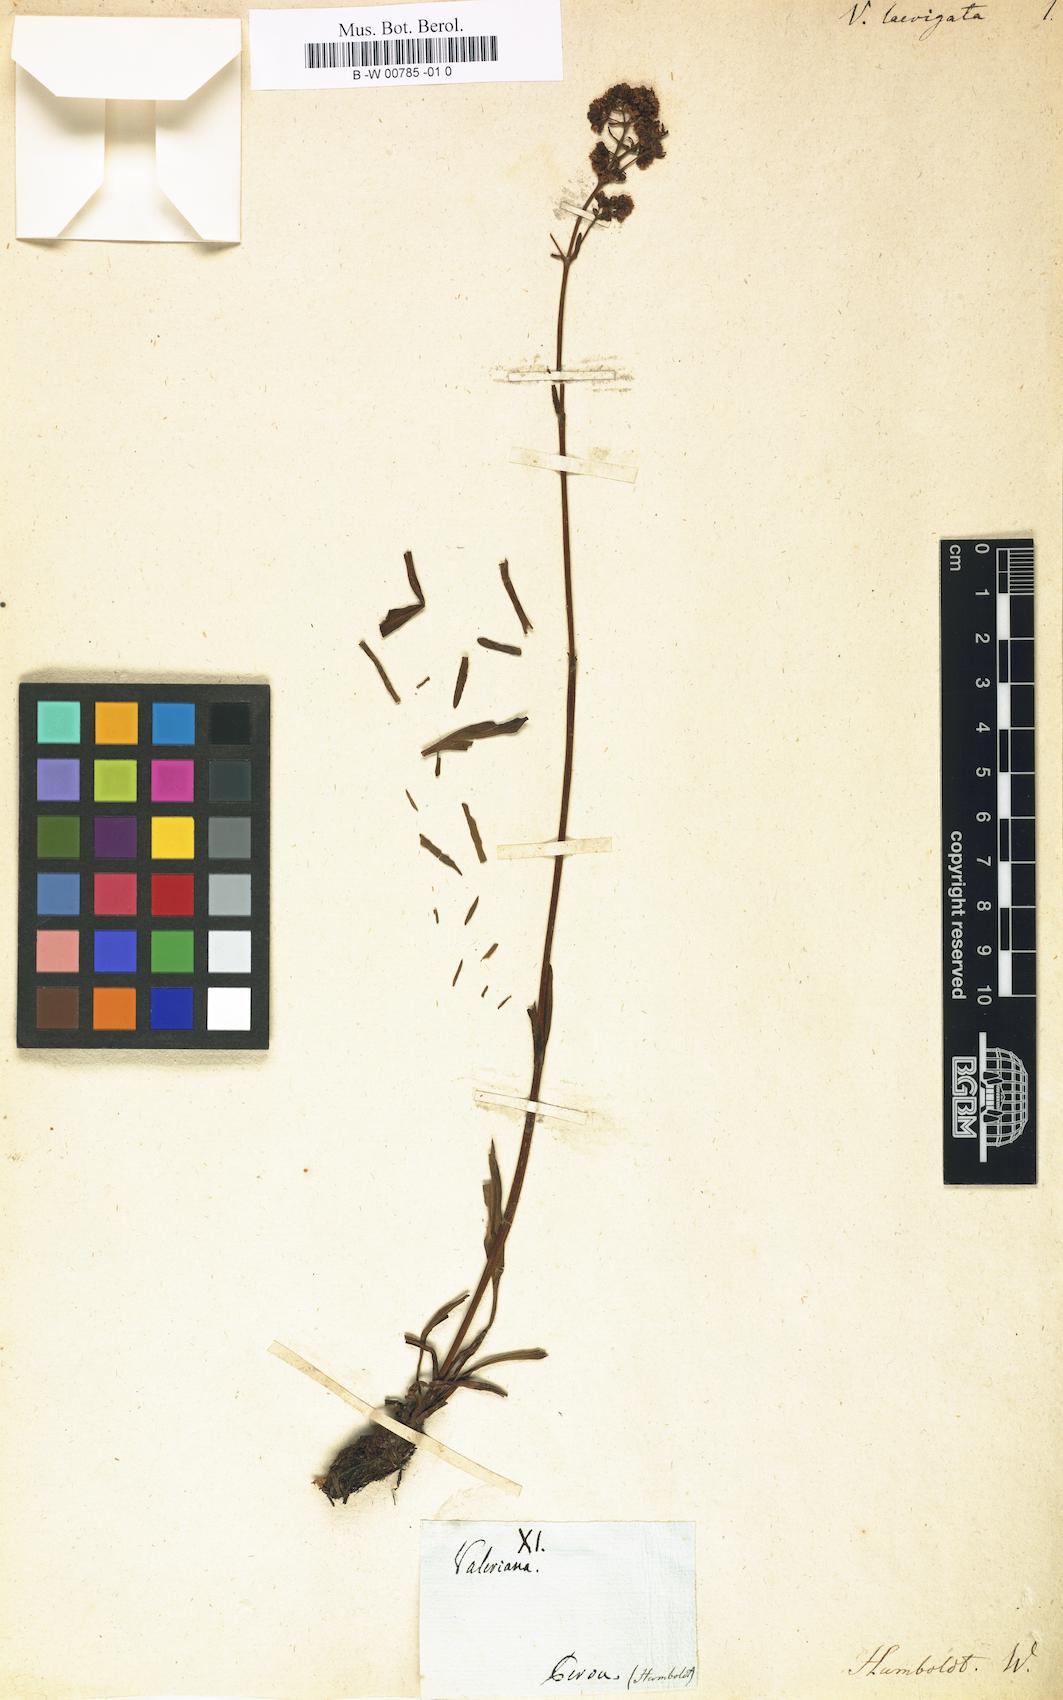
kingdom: Plantae
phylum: Tracheophyta
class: Magnoliopsida
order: Dipsacales
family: Caprifoliaceae
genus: Valeriana
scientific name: Valeriana scouleri
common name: Scouler's valerian
